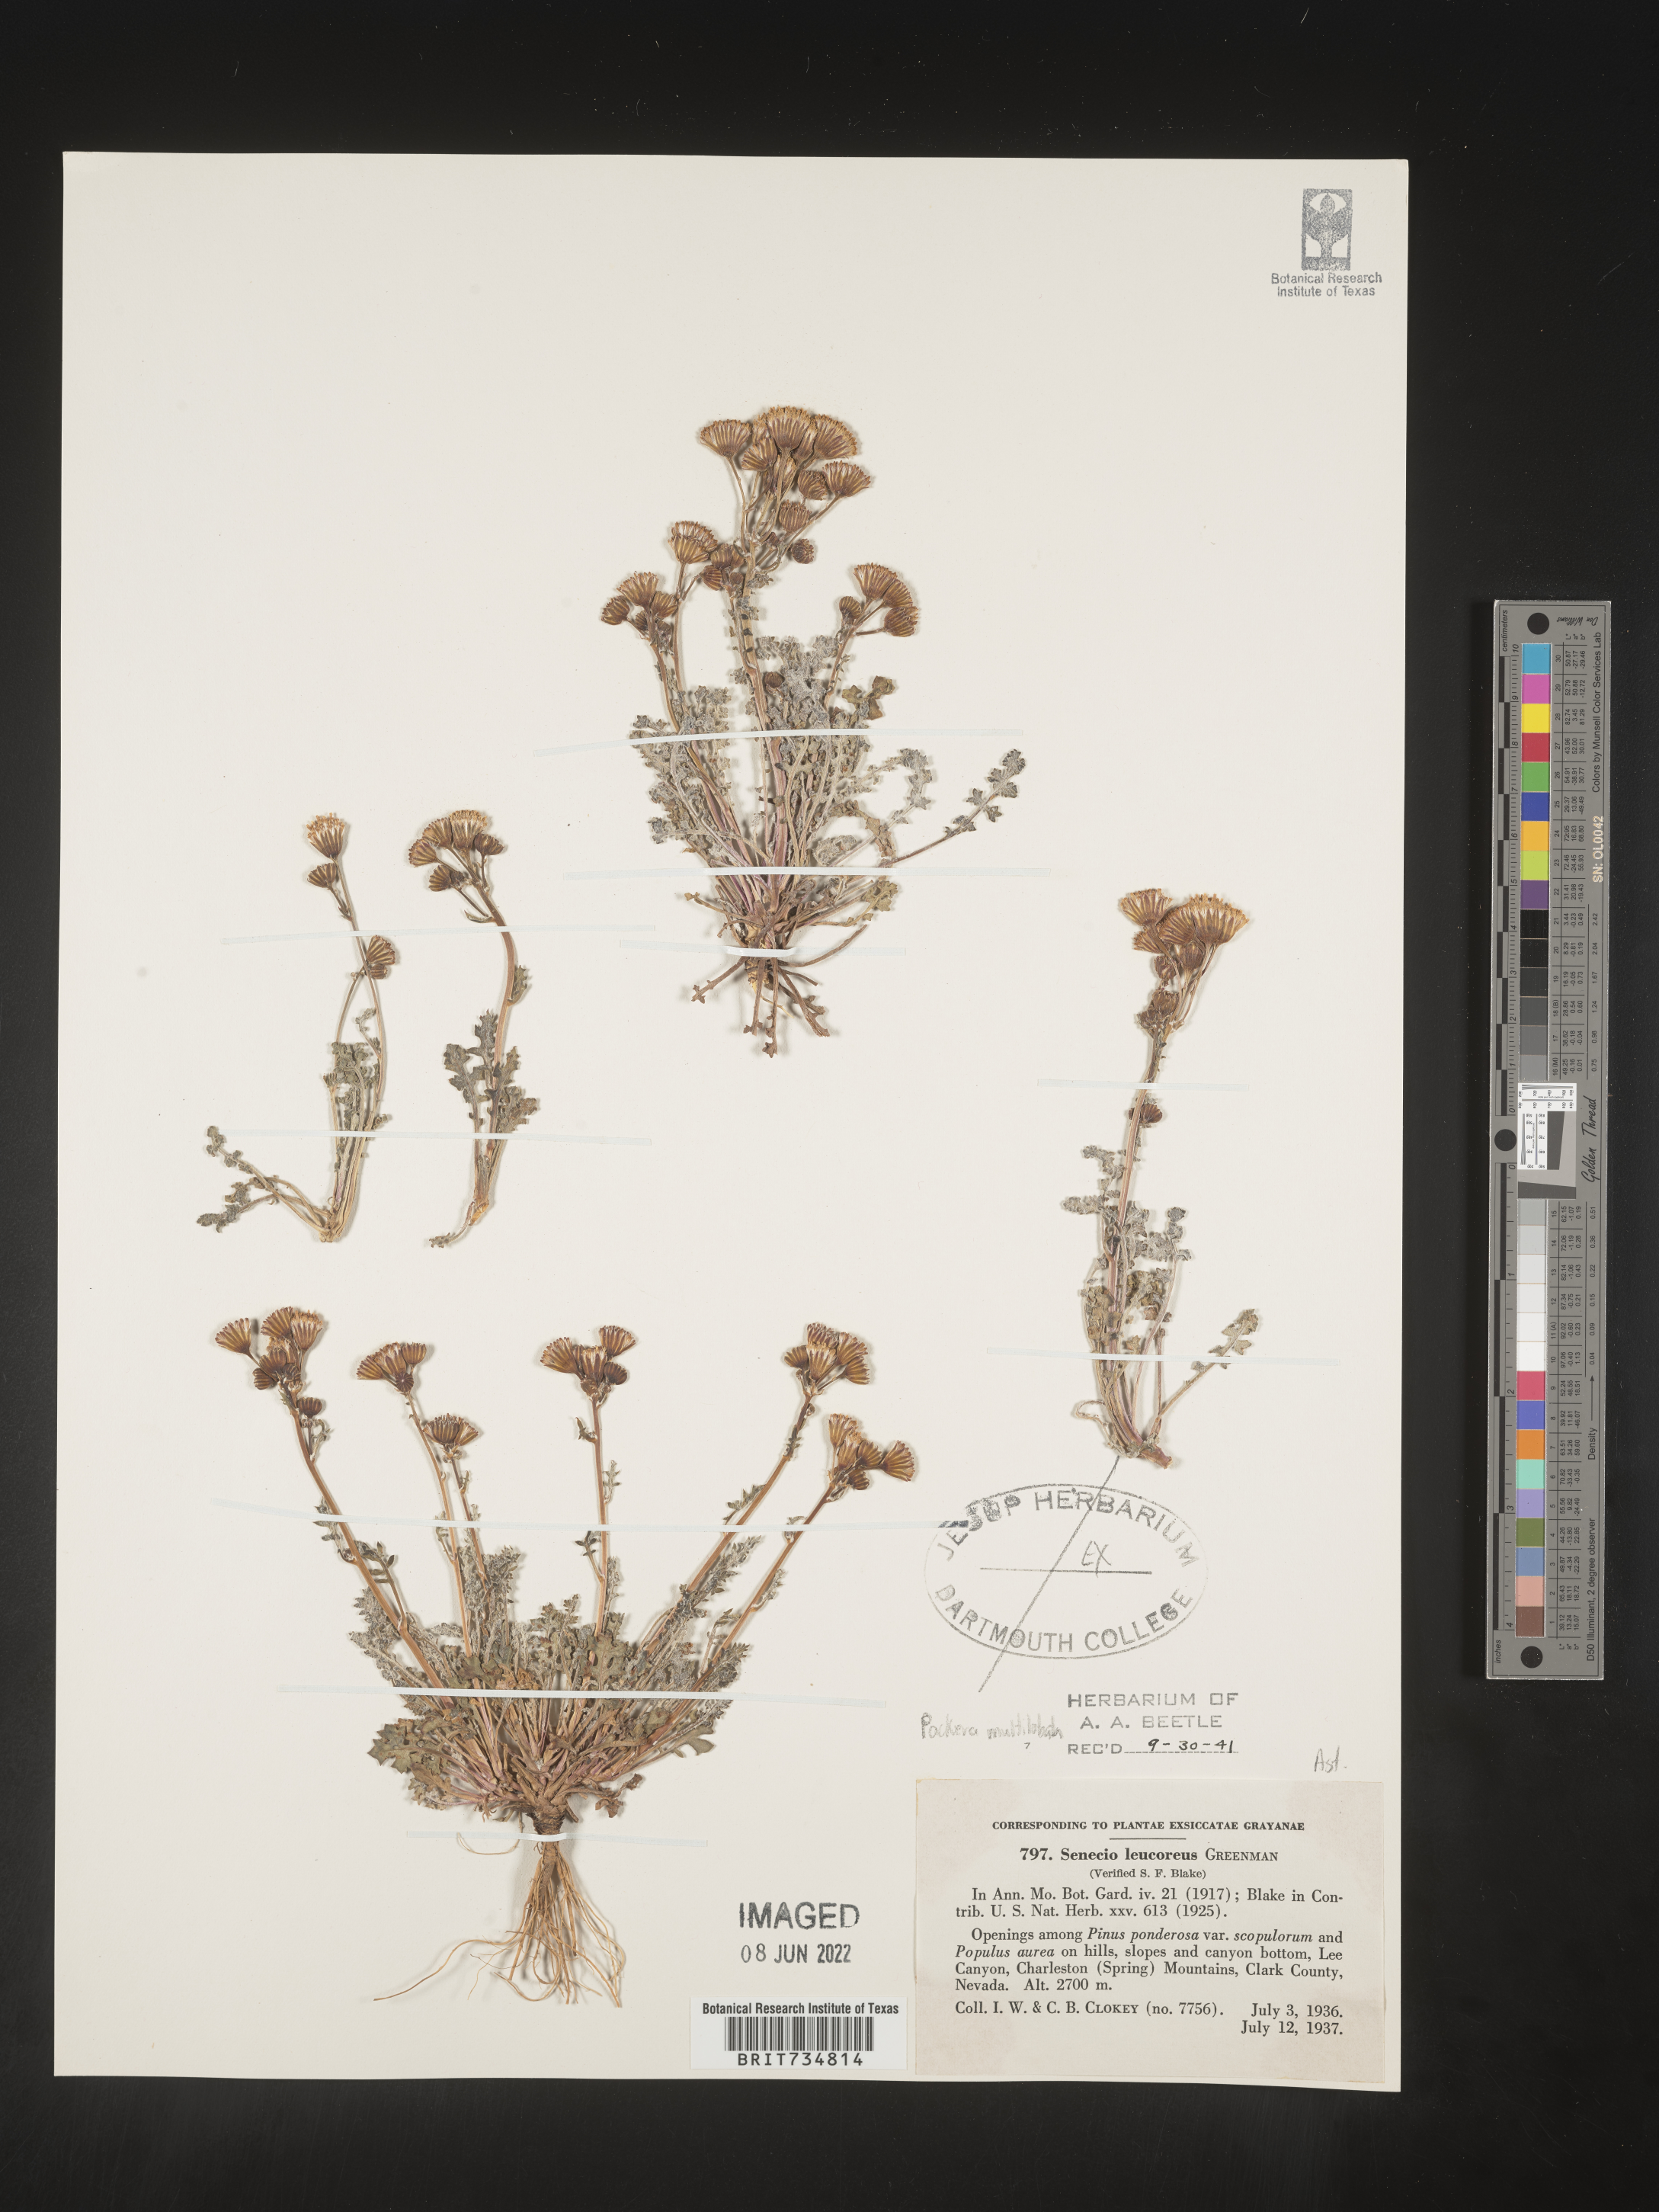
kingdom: Plantae
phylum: Tracheophyta
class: Magnoliopsida
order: Asterales
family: Asteraceae
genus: Packera
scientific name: Packera
